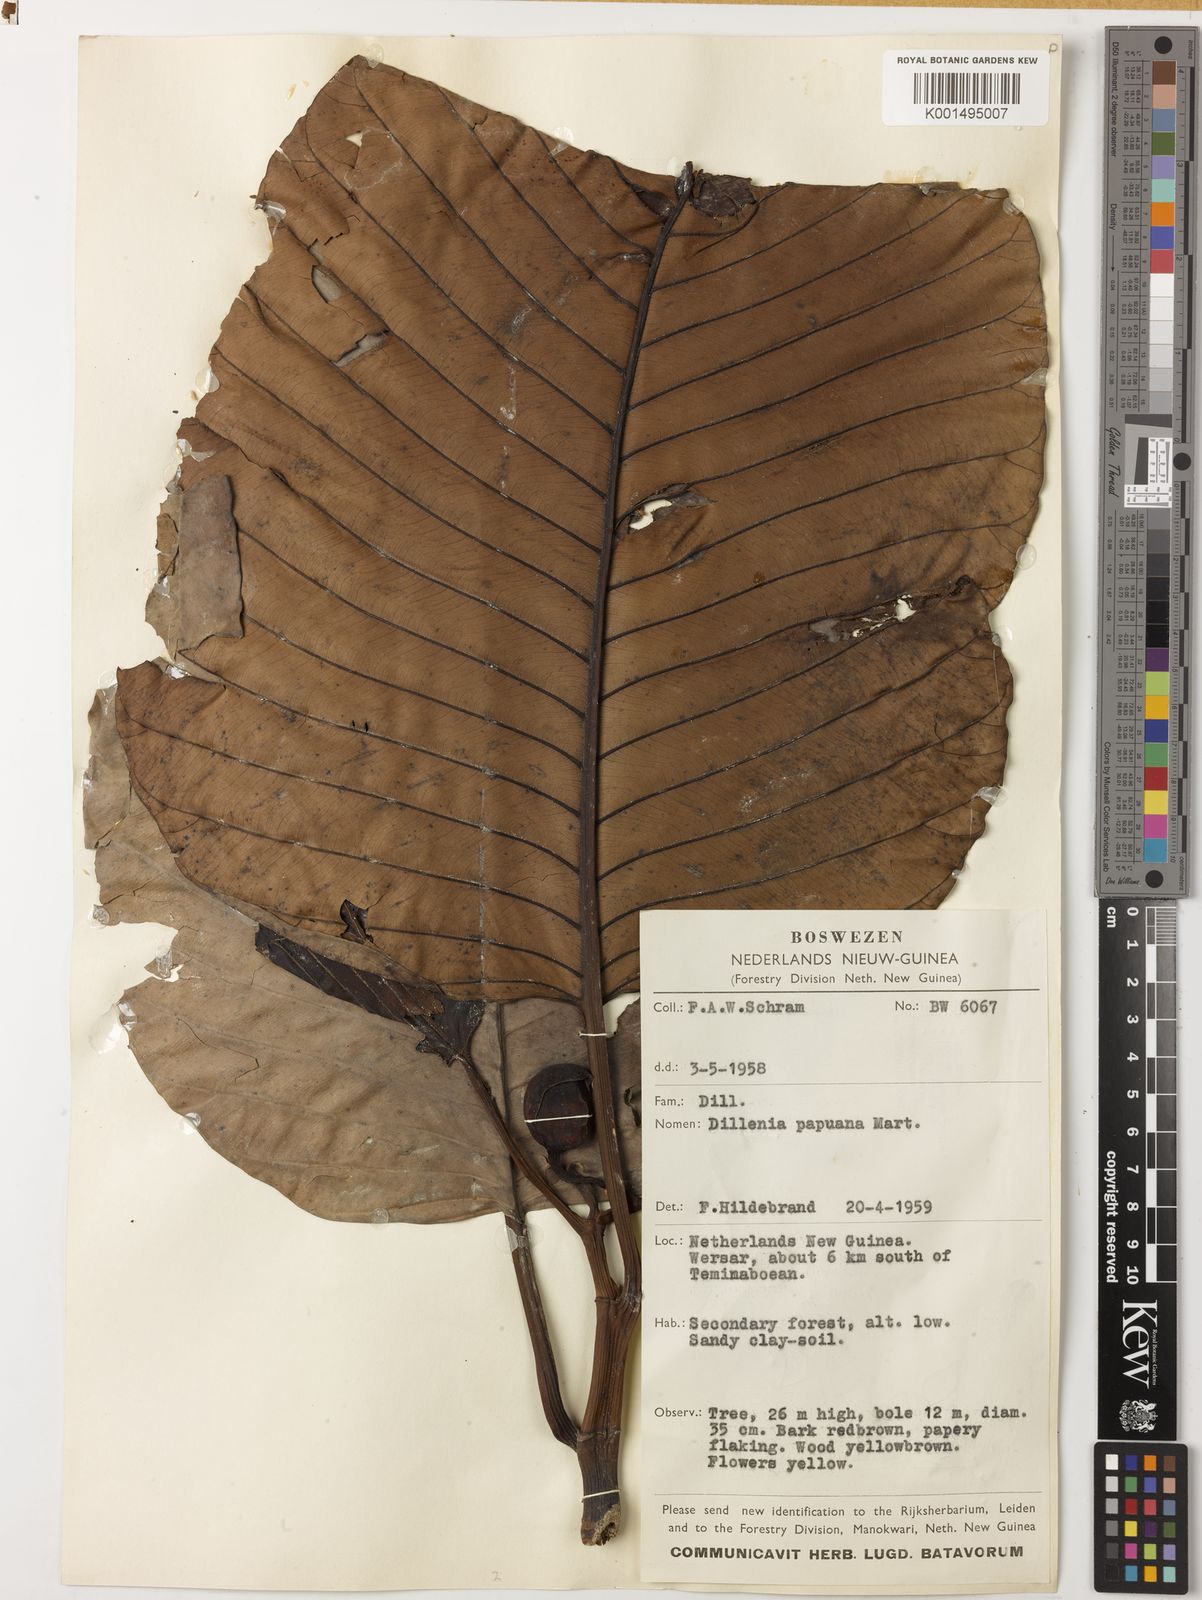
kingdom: Plantae
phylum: Tracheophyta
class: Magnoliopsida
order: Dilleniales
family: Dilleniaceae
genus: Dillenia
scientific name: Dillenia papuana
